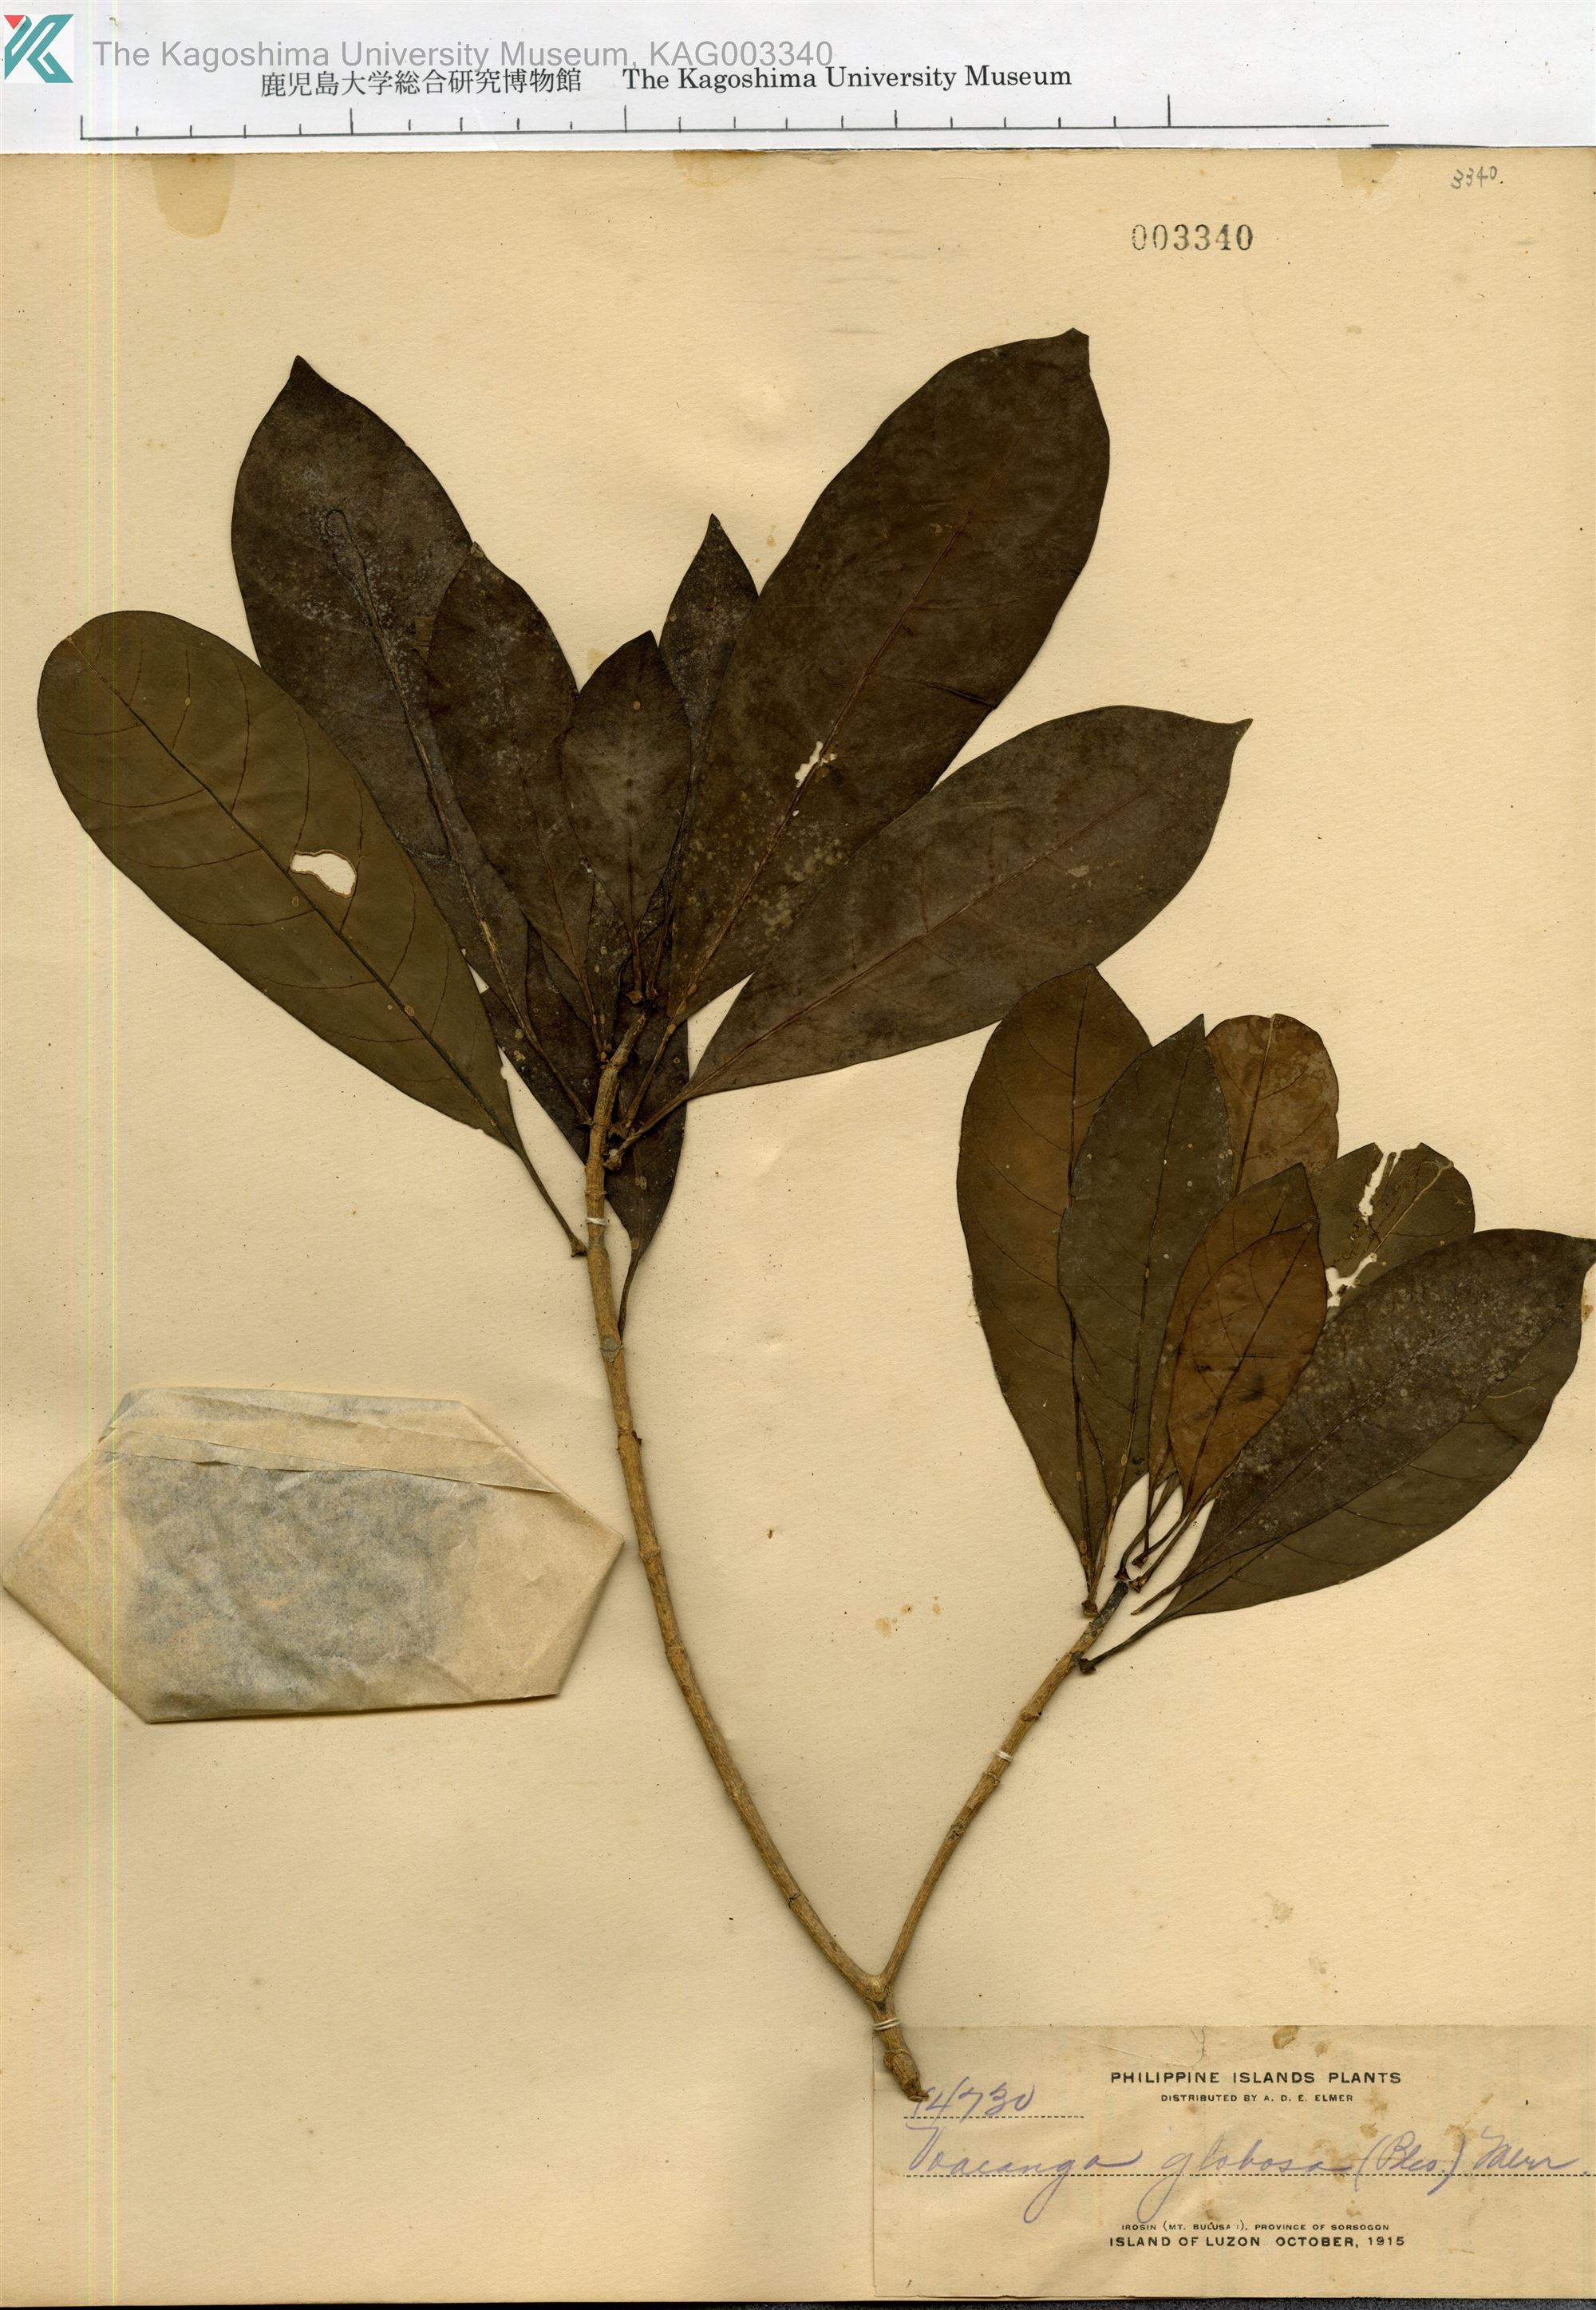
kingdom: Plantae
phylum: Tracheophyta
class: Magnoliopsida
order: Gentianales
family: Apocynaceae
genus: Voacanga
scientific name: Voacanga globosa
